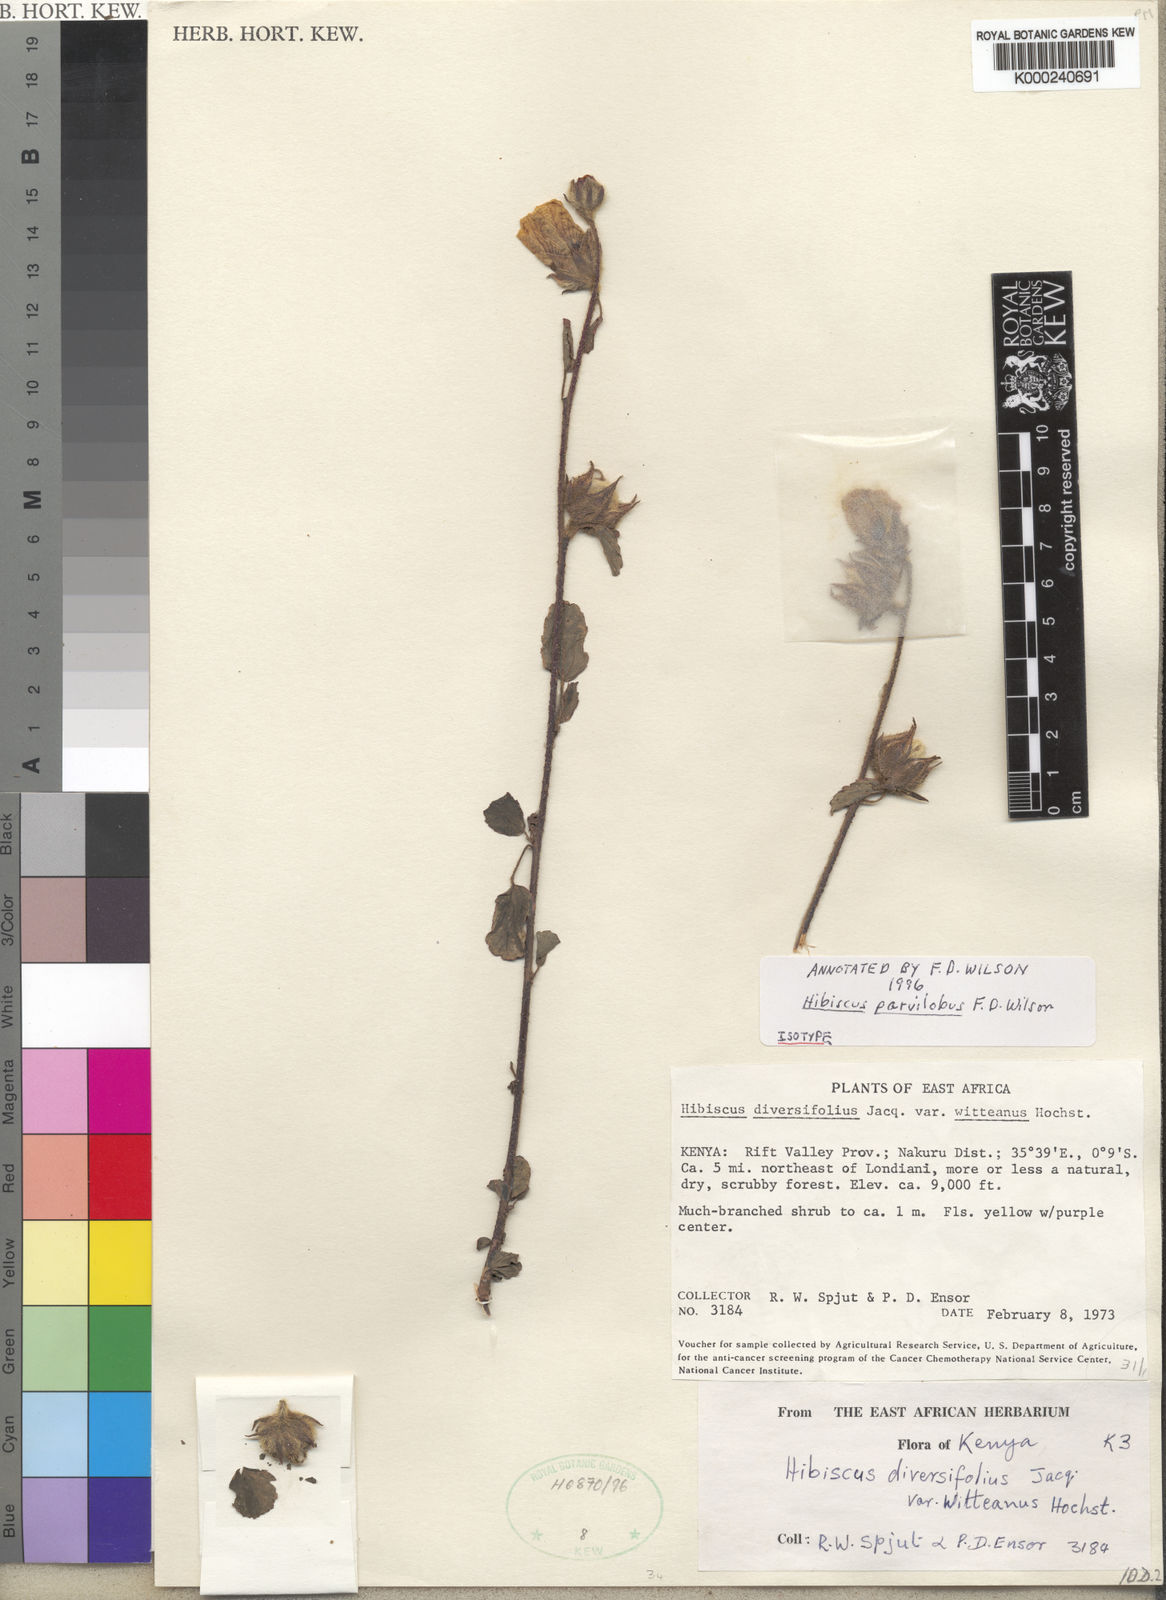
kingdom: Plantae
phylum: Tracheophyta
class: Magnoliopsida
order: Malvales
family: Malvaceae
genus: Hibiscus
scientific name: Hibiscus berberidifolius
